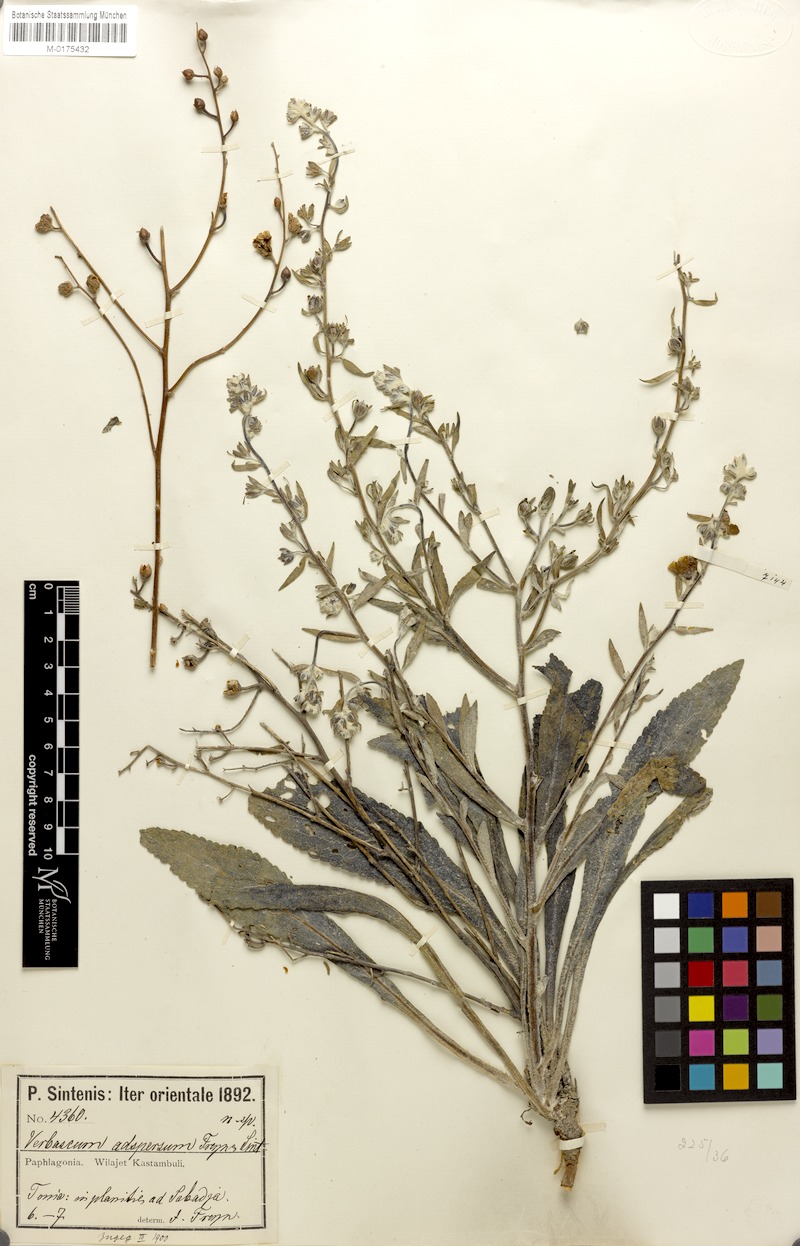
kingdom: Plantae
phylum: Tracheophyta
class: Magnoliopsida
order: Lamiales
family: Scrophulariaceae
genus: Verbascum
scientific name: Verbascum stachydifolium
